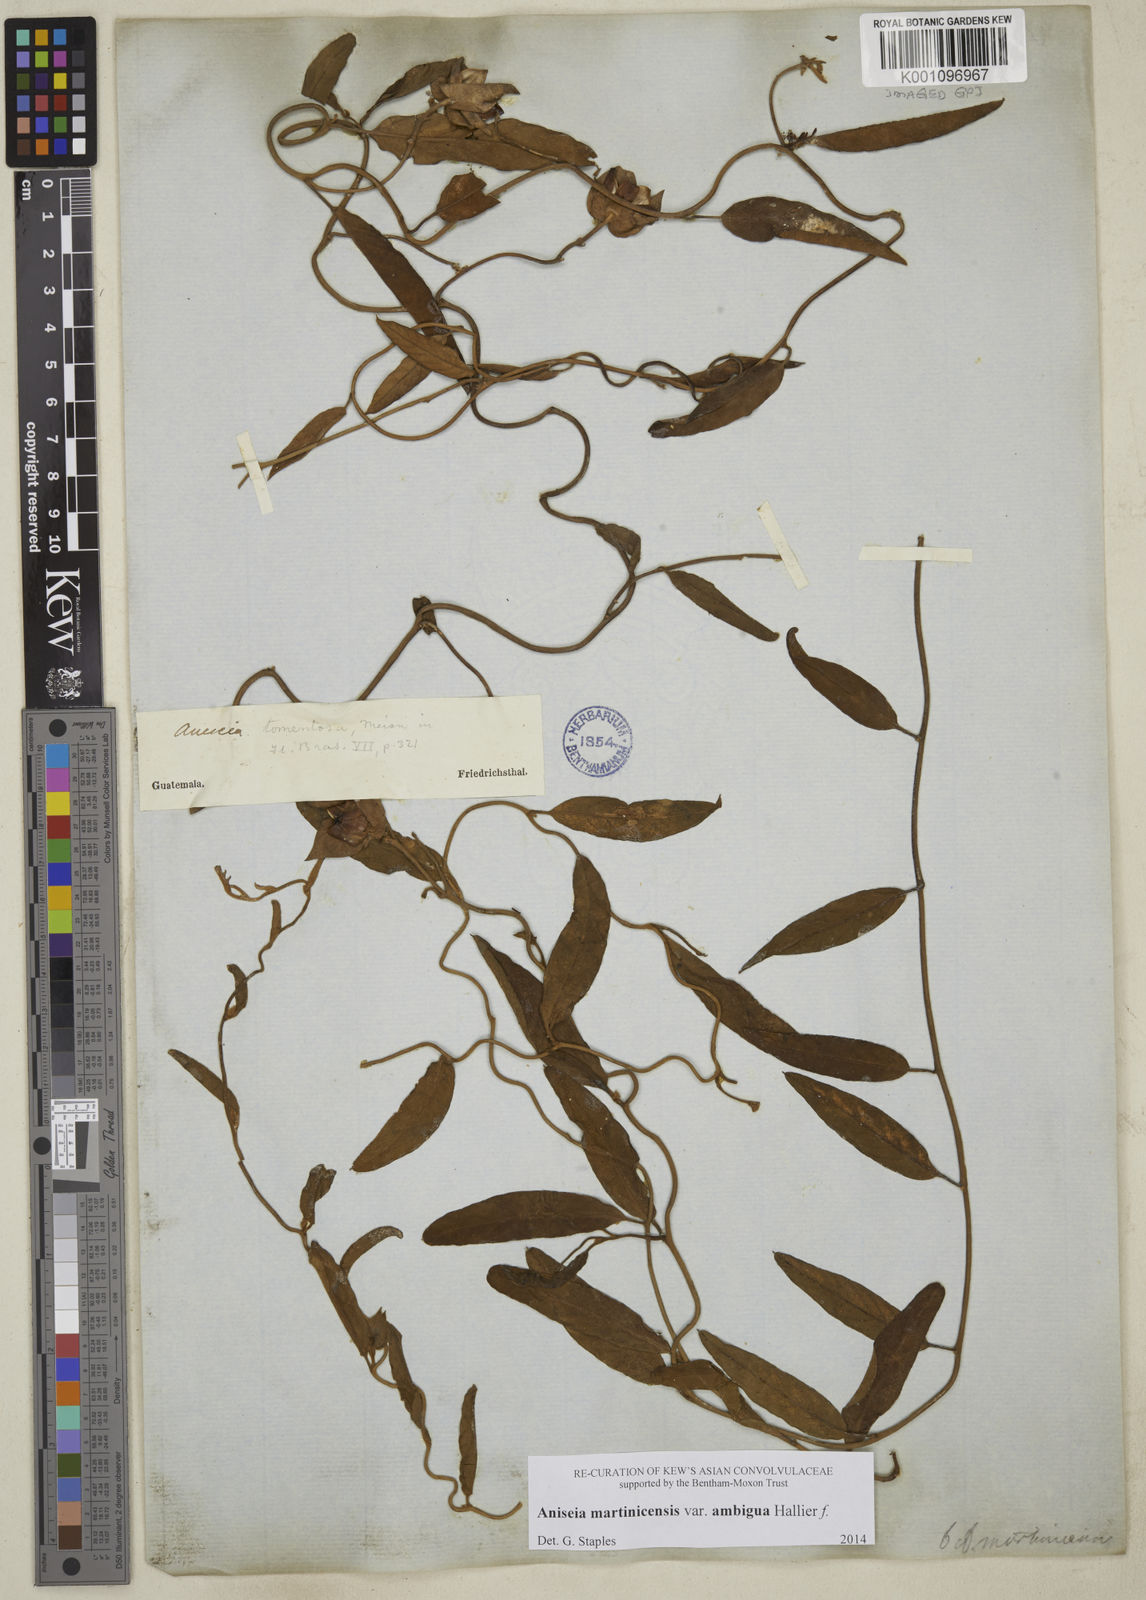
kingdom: Plantae
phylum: Tracheophyta
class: Magnoliopsida
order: Solanales
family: Convolvulaceae
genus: Aniseia
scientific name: Aniseia martinicensis
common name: Kulayadambu
